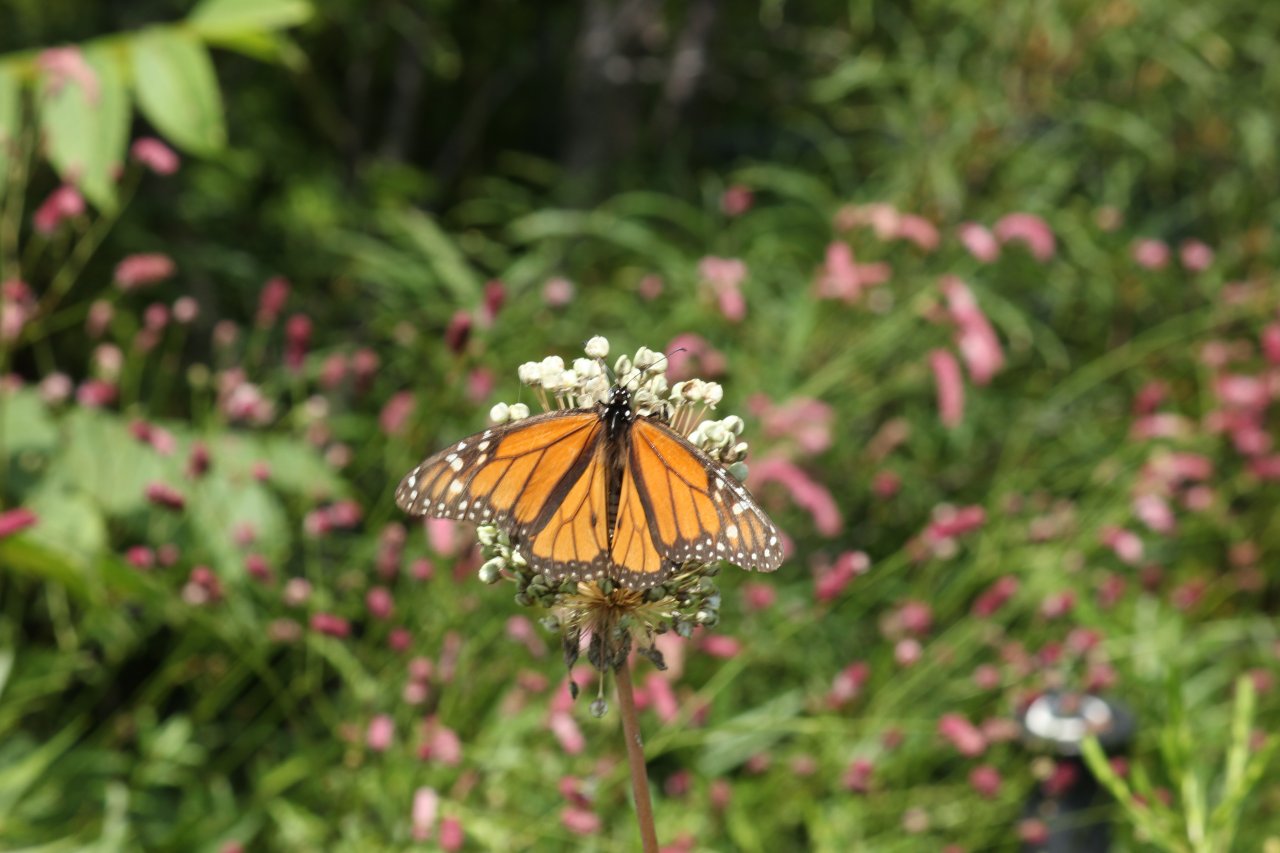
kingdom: Animalia
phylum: Arthropoda
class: Insecta
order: Lepidoptera
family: Nymphalidae
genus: Danaus
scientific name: Danaus plexippus
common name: Monarch
